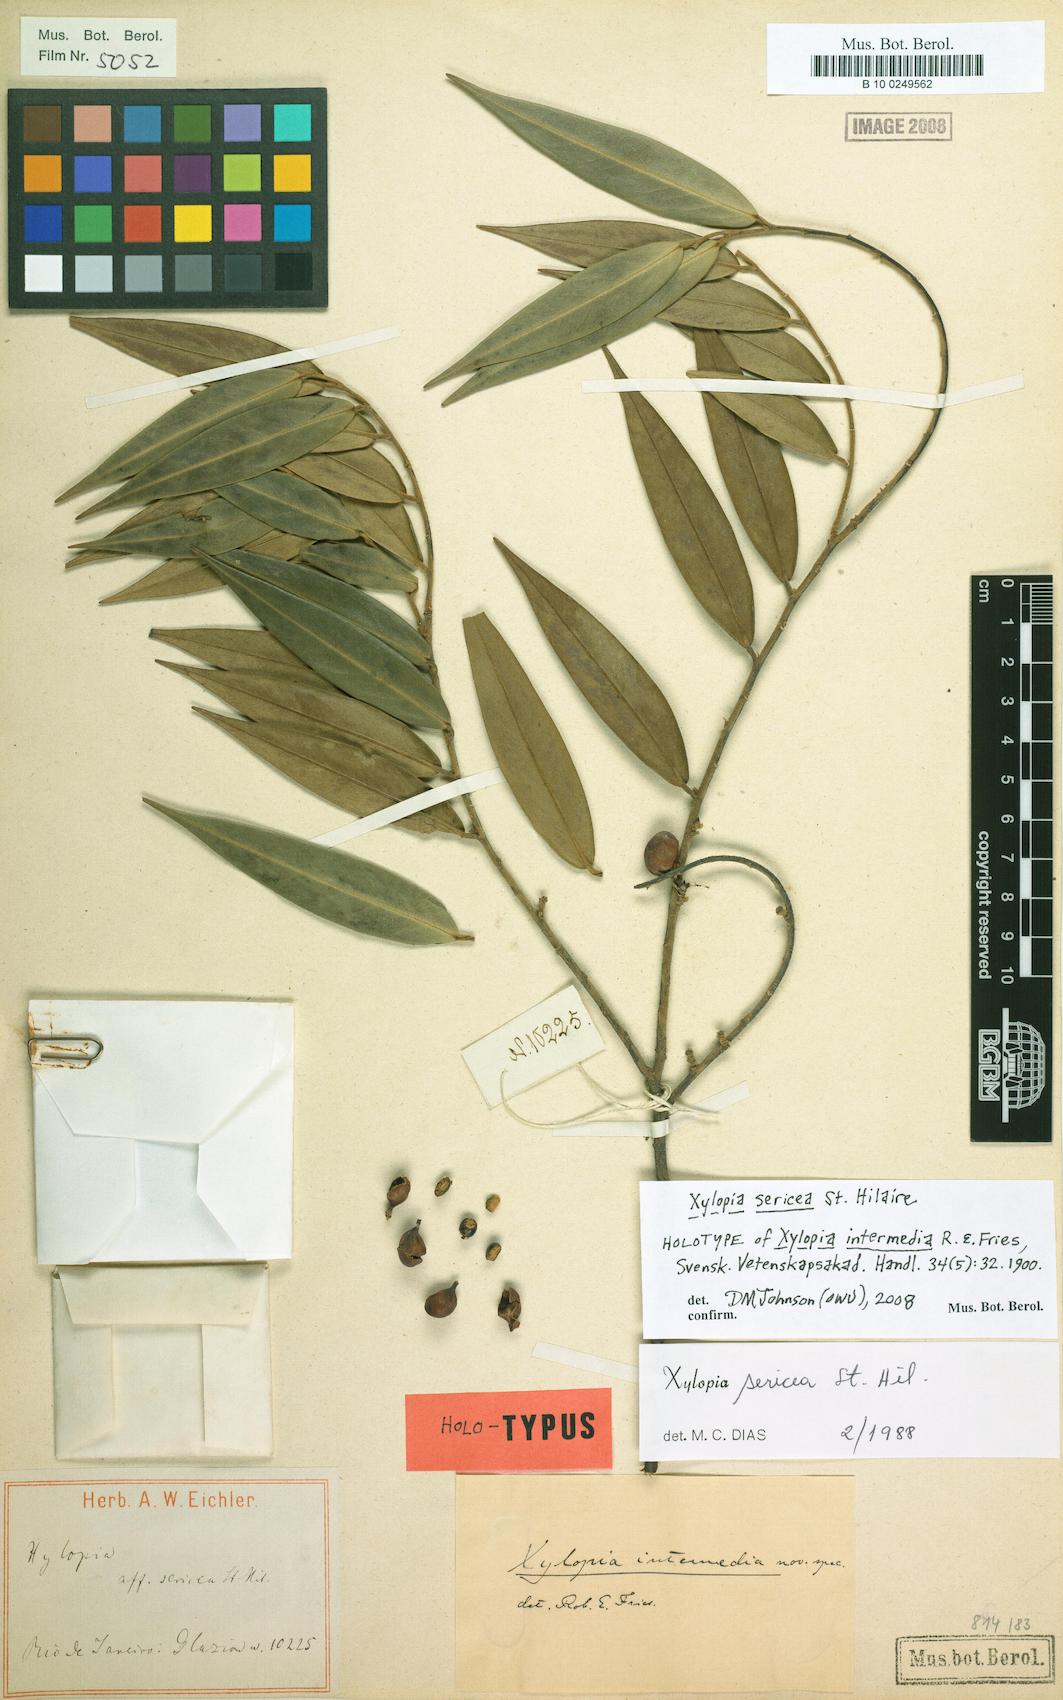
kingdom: Plantae
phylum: Tracheophyta
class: Magnoliopsida
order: Magnoliales
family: Annonaceae
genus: Xylopia
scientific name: Xylopia sericea
